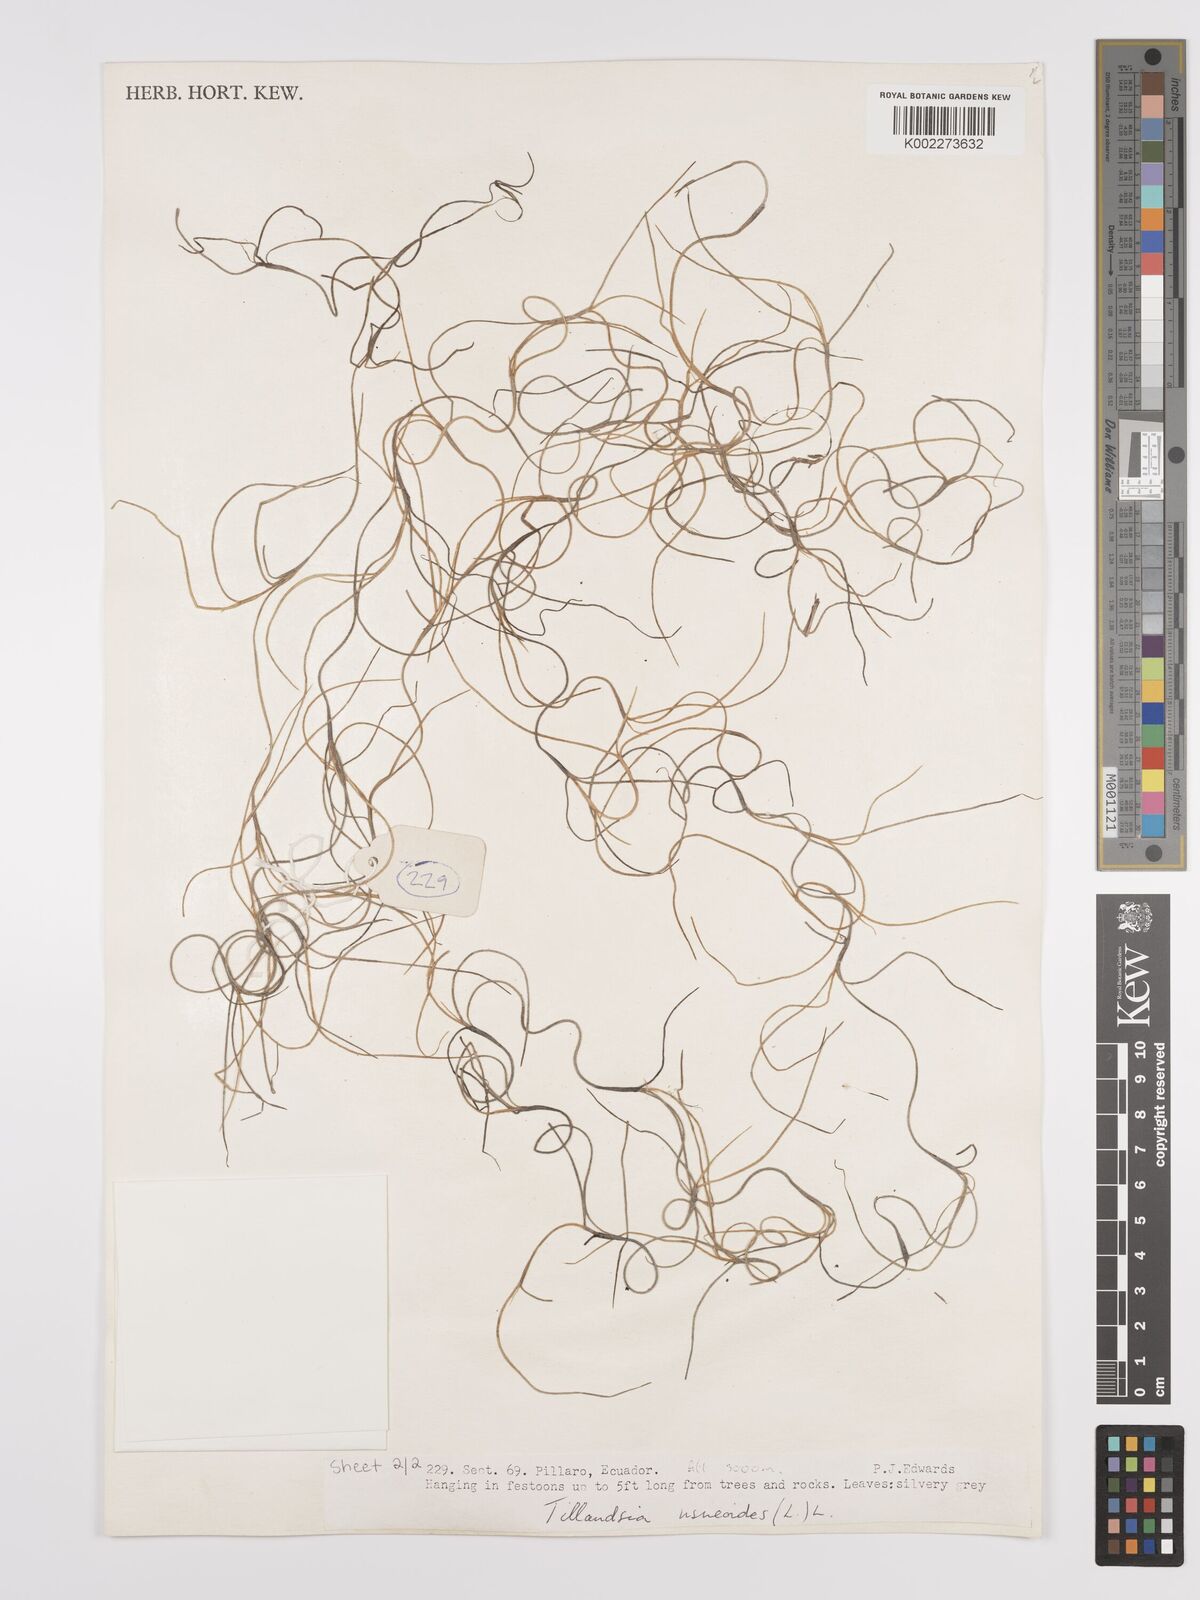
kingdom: Plantae
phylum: Tracheophyta
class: Liliopsida
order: Poales
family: Bromeliaceae
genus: Tillandsia
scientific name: Tillandsia usneoides
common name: Spanish moss
